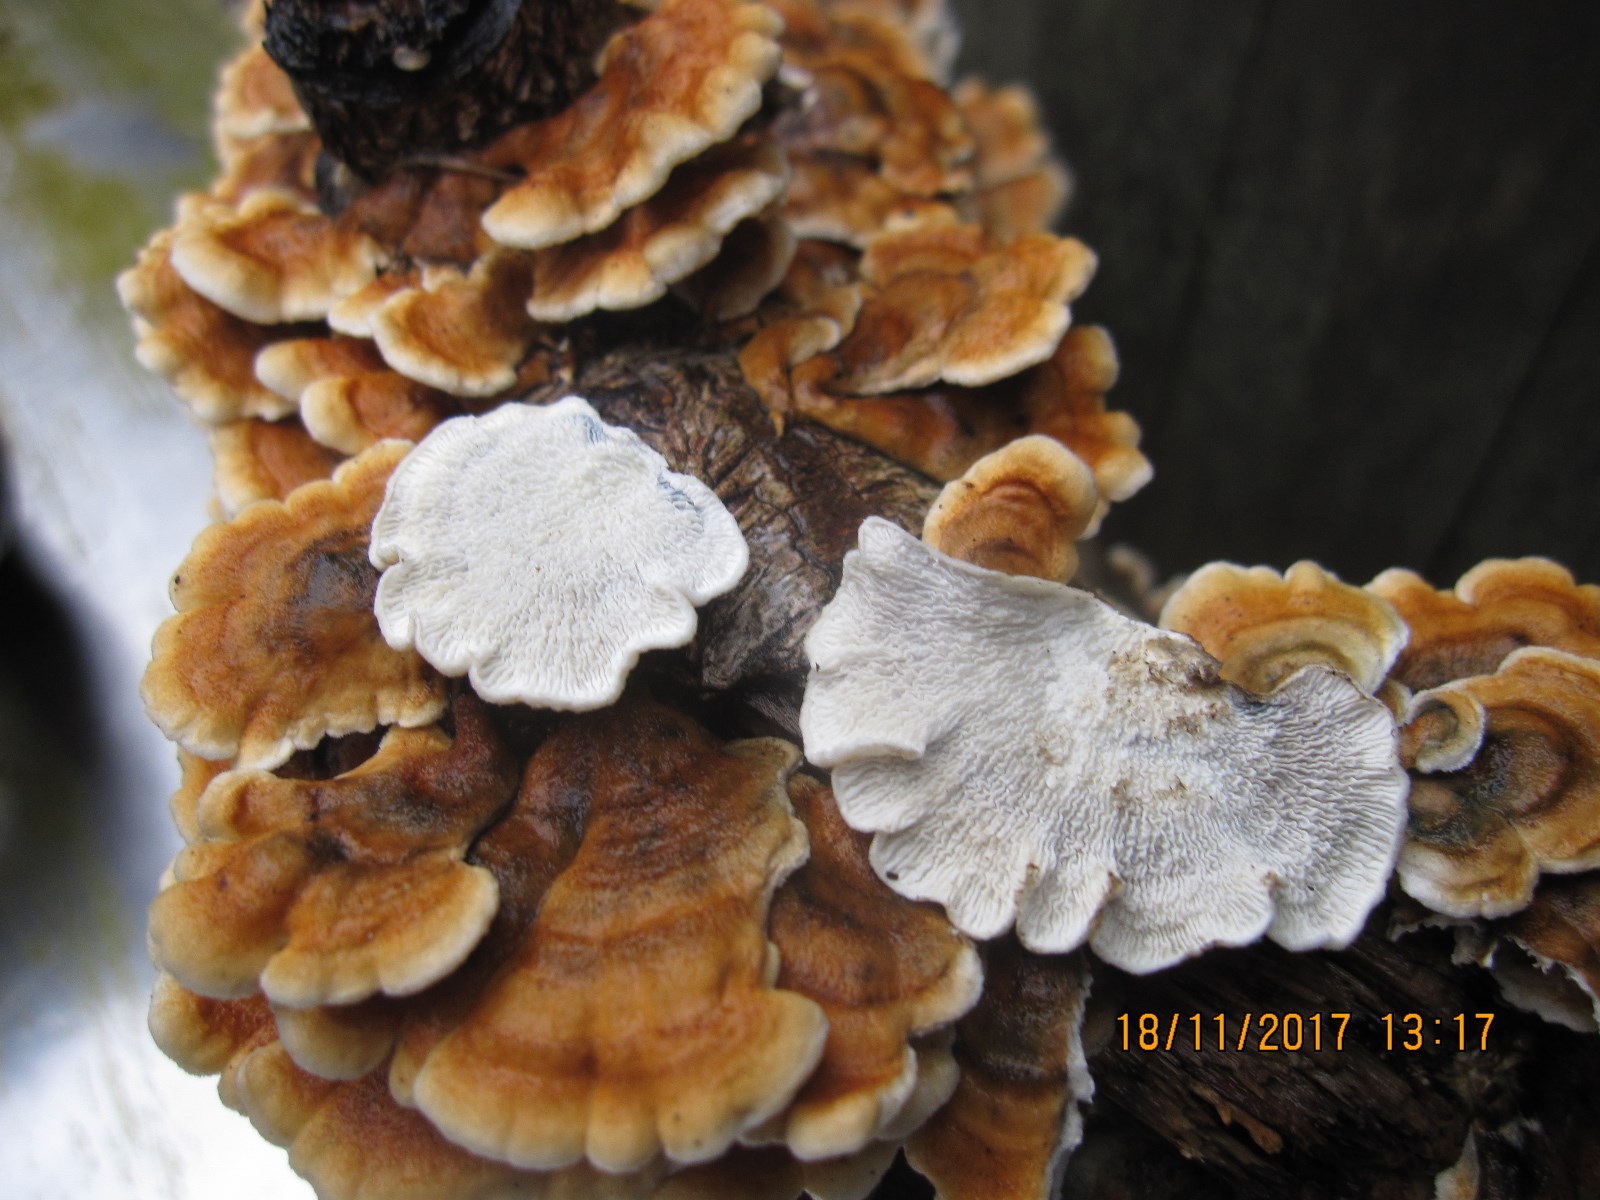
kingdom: Fungi
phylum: Basidiomycota
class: Agaricomycetes
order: Amylocorticiales
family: Amylocorticiaceae
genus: Plicaturopsis
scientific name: Plicaturopsis crispa
